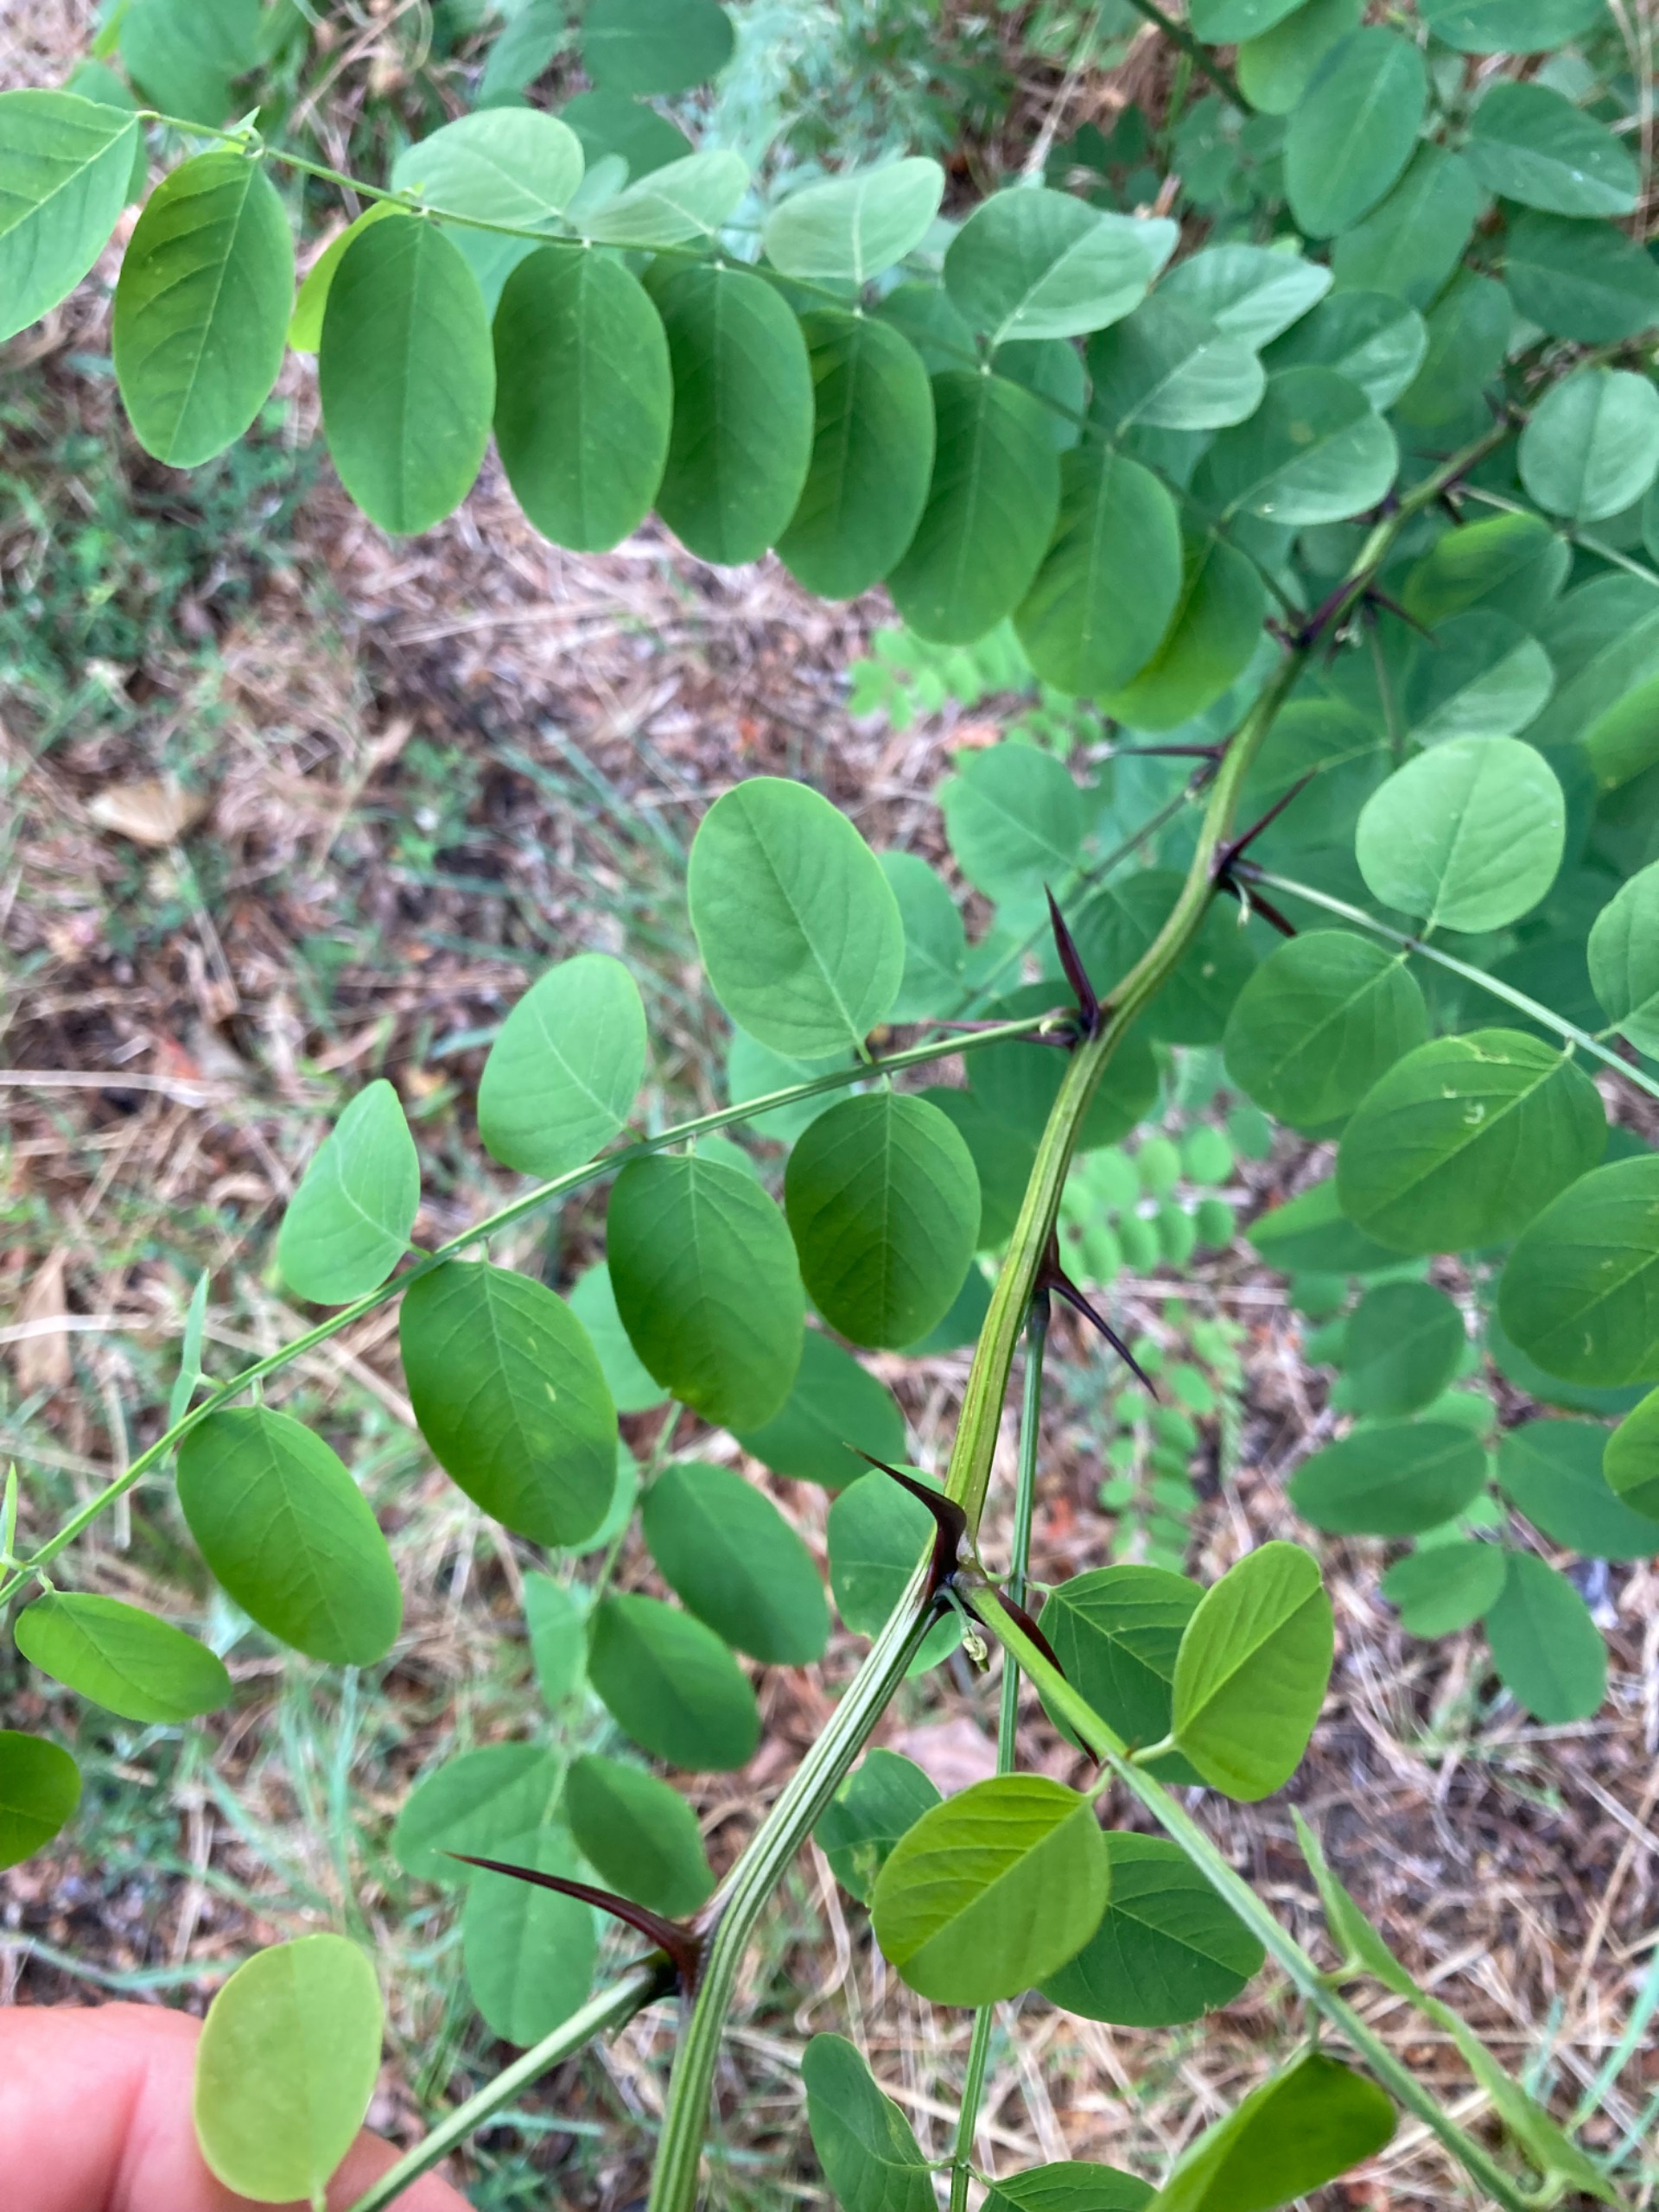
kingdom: Plantae
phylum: Tracheophyta
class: Magnoliopsida
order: Fabales
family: Fabaceae
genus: Robinia
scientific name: Robinia pseudoacacia
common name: Robinie
